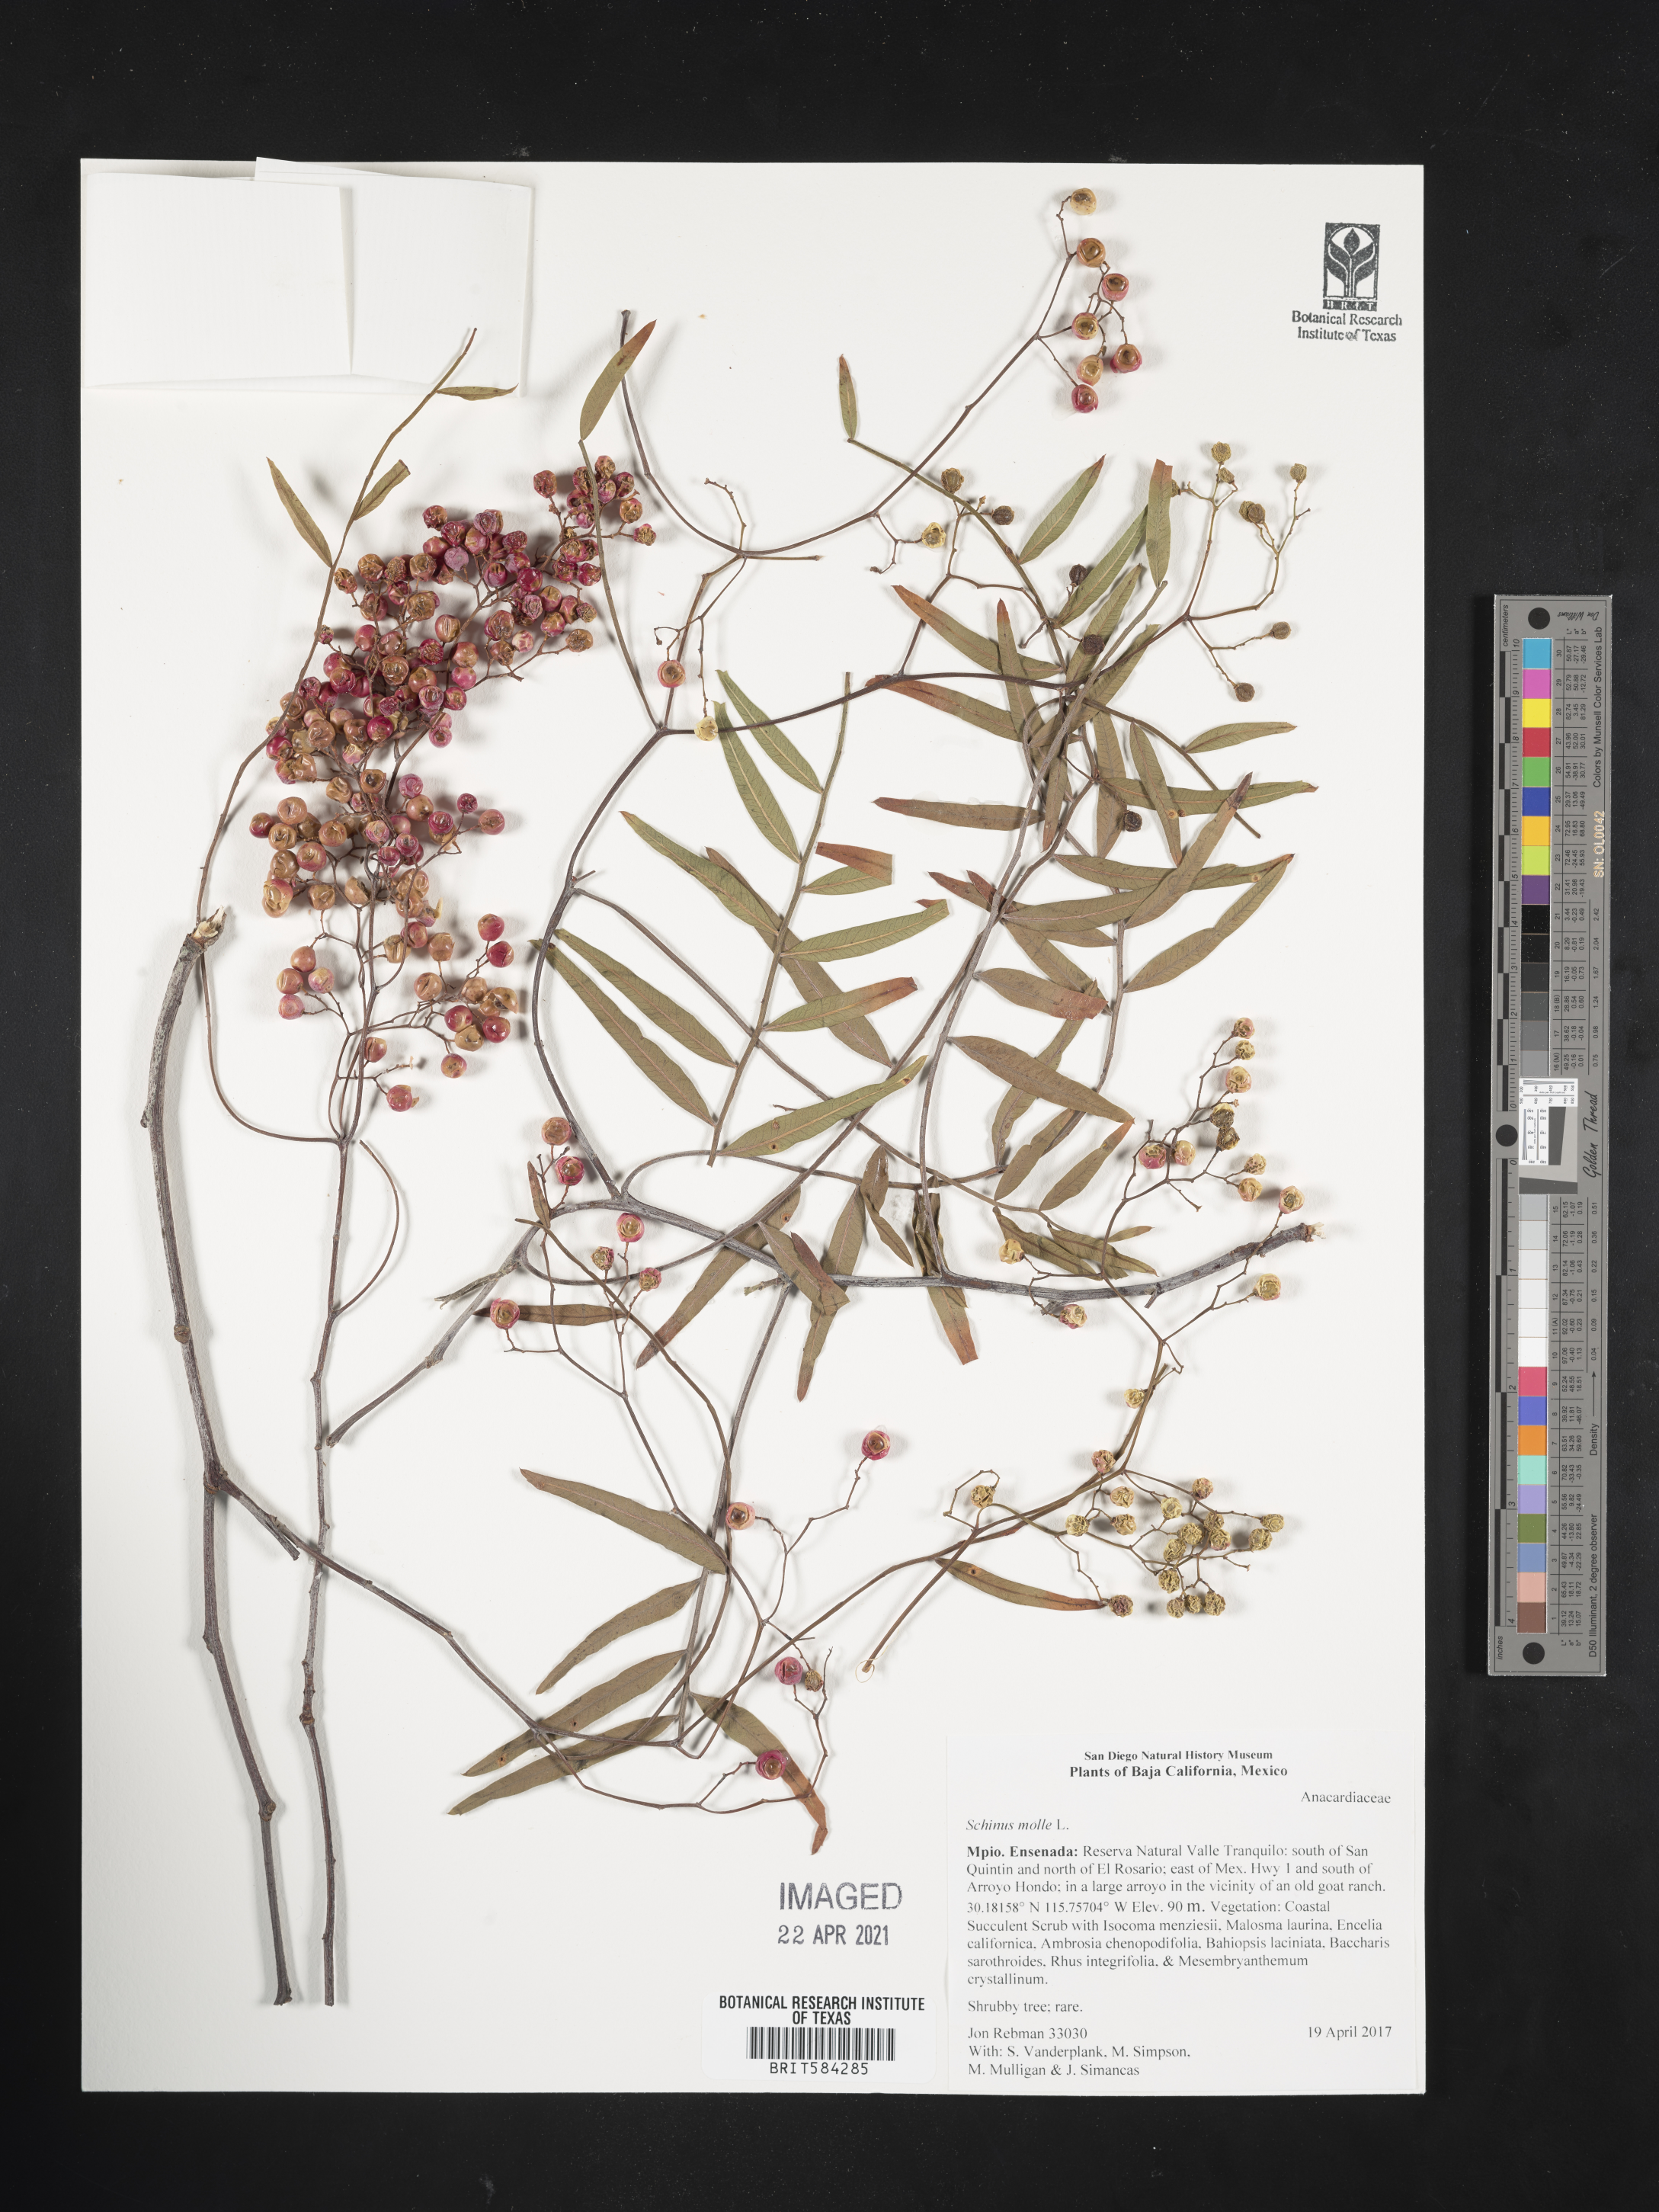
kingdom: Plantae
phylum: Tracheophyta
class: Magnoliopsida
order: Sapindales
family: Anacardiaceae
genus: Schinus
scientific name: Schinus molle
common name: Peruvian peppertree
